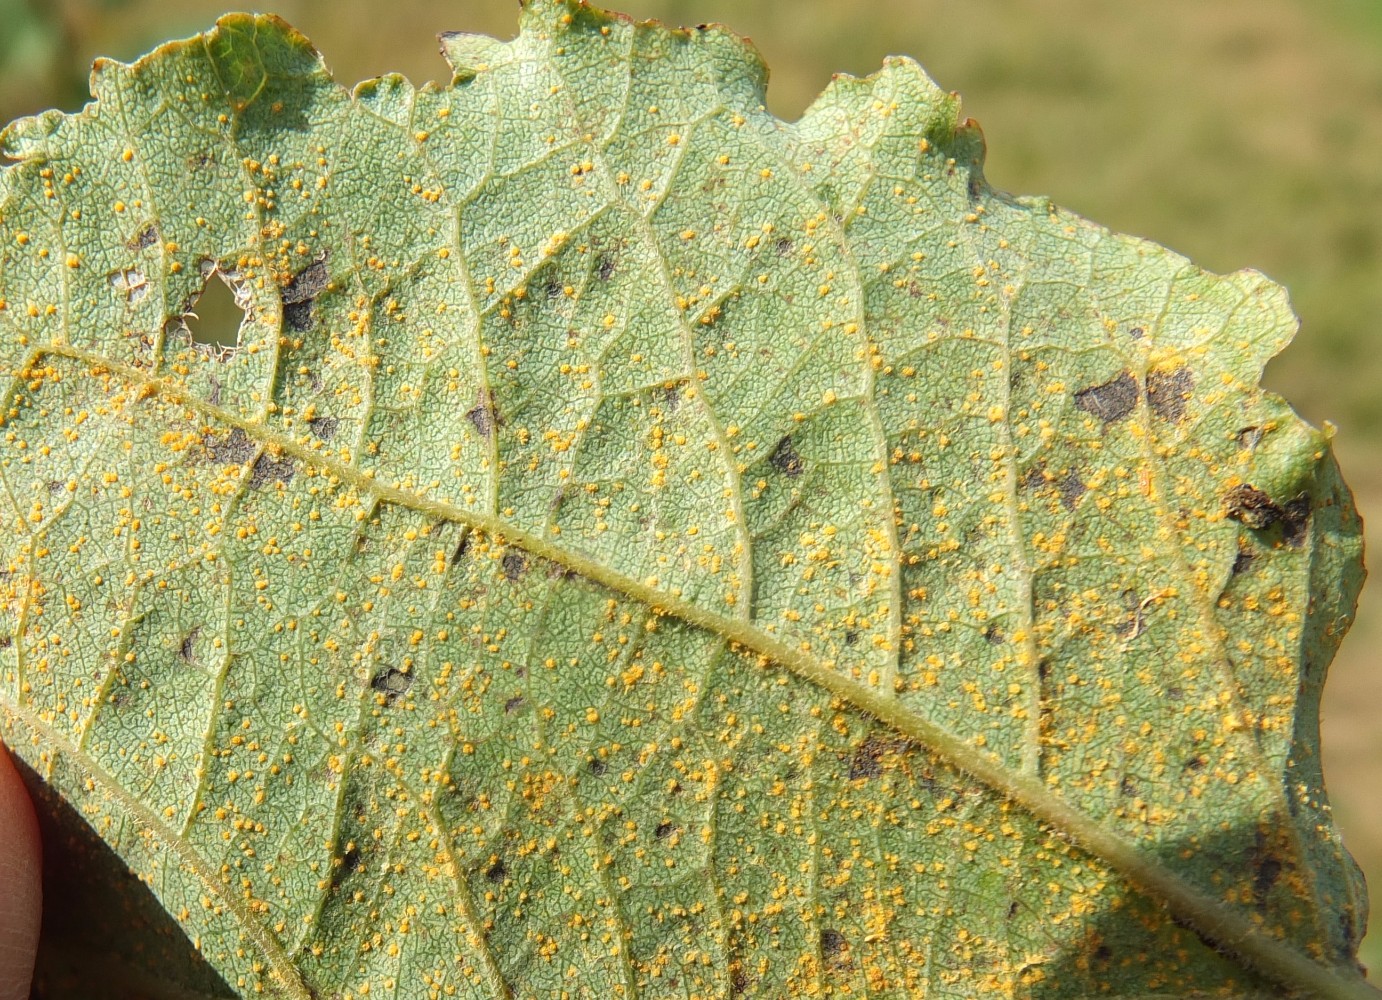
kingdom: Fungi
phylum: Basidiomycota
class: Pucciniomycetes
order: Pucciniales
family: Melampsoraceae
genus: Melampsora
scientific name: Melampsora populnea
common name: poppel-skorperust
